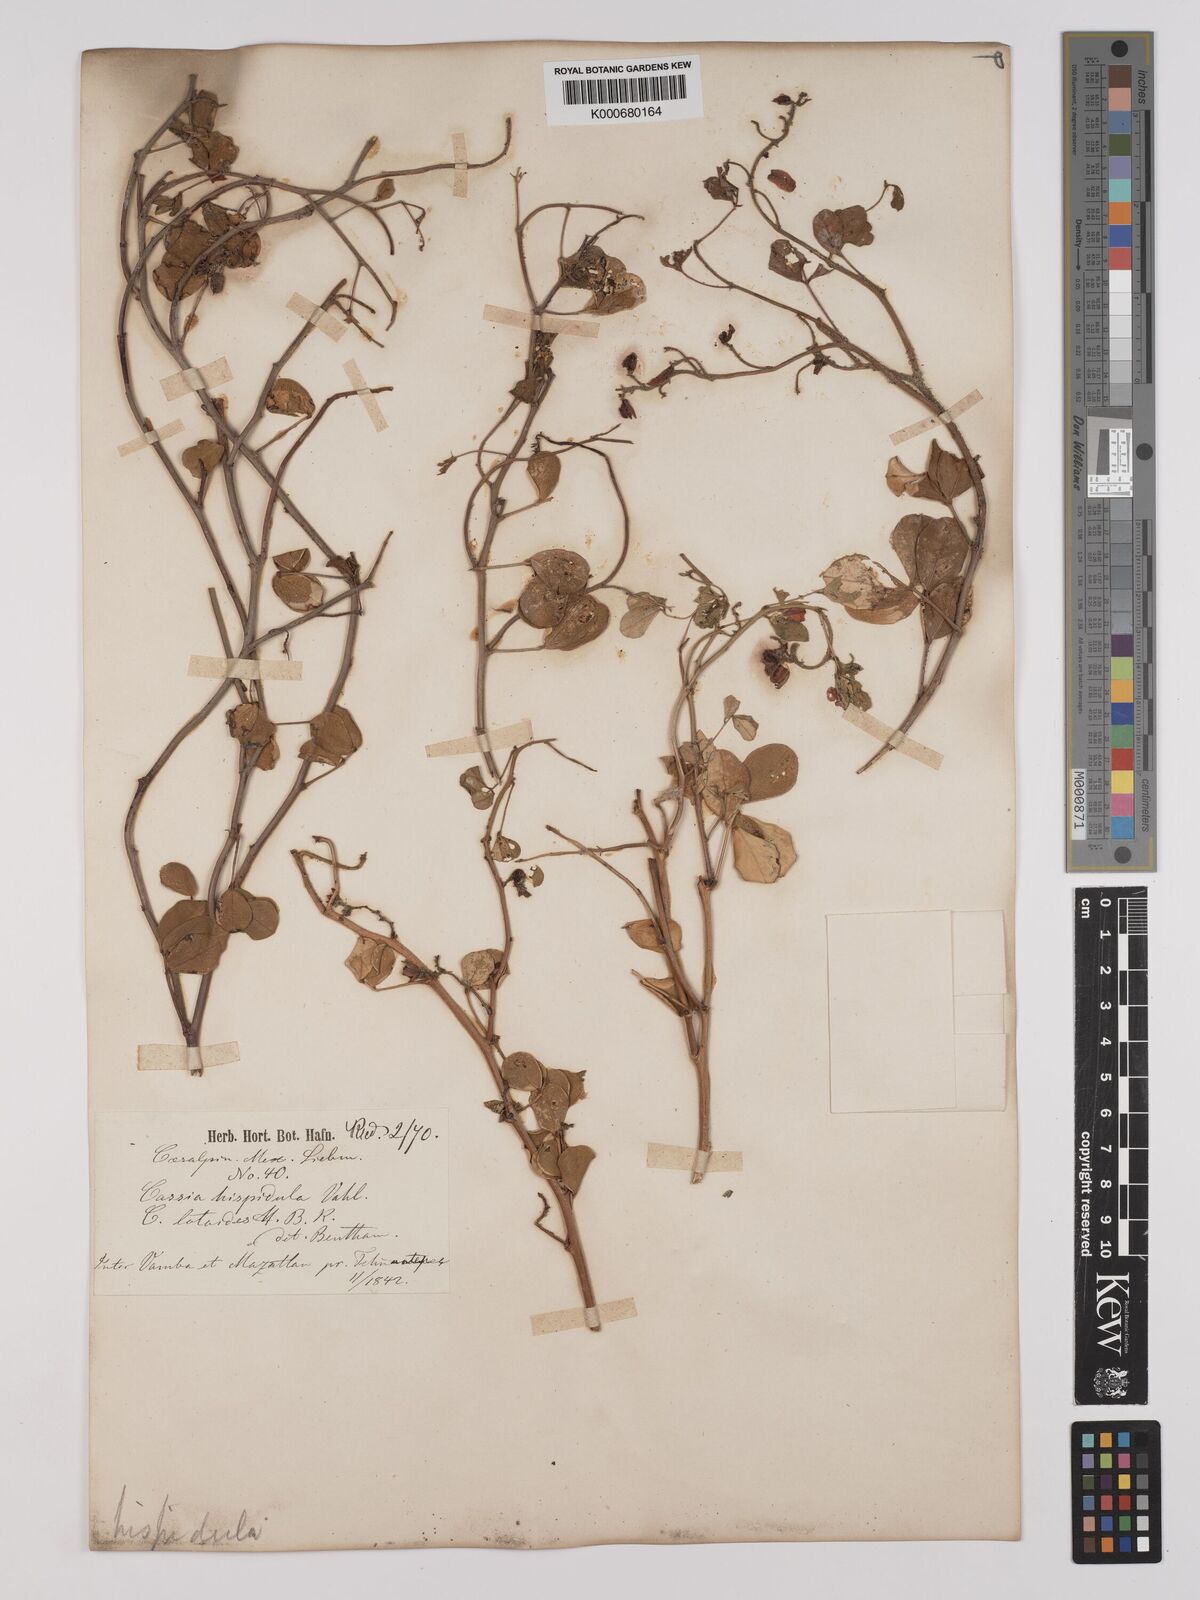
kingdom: Plantae
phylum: Tracheophyta
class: Magnoliopsida
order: Fabales
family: Fabaceae
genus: Chamaecrista
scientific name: Chamaecrista hispidula
